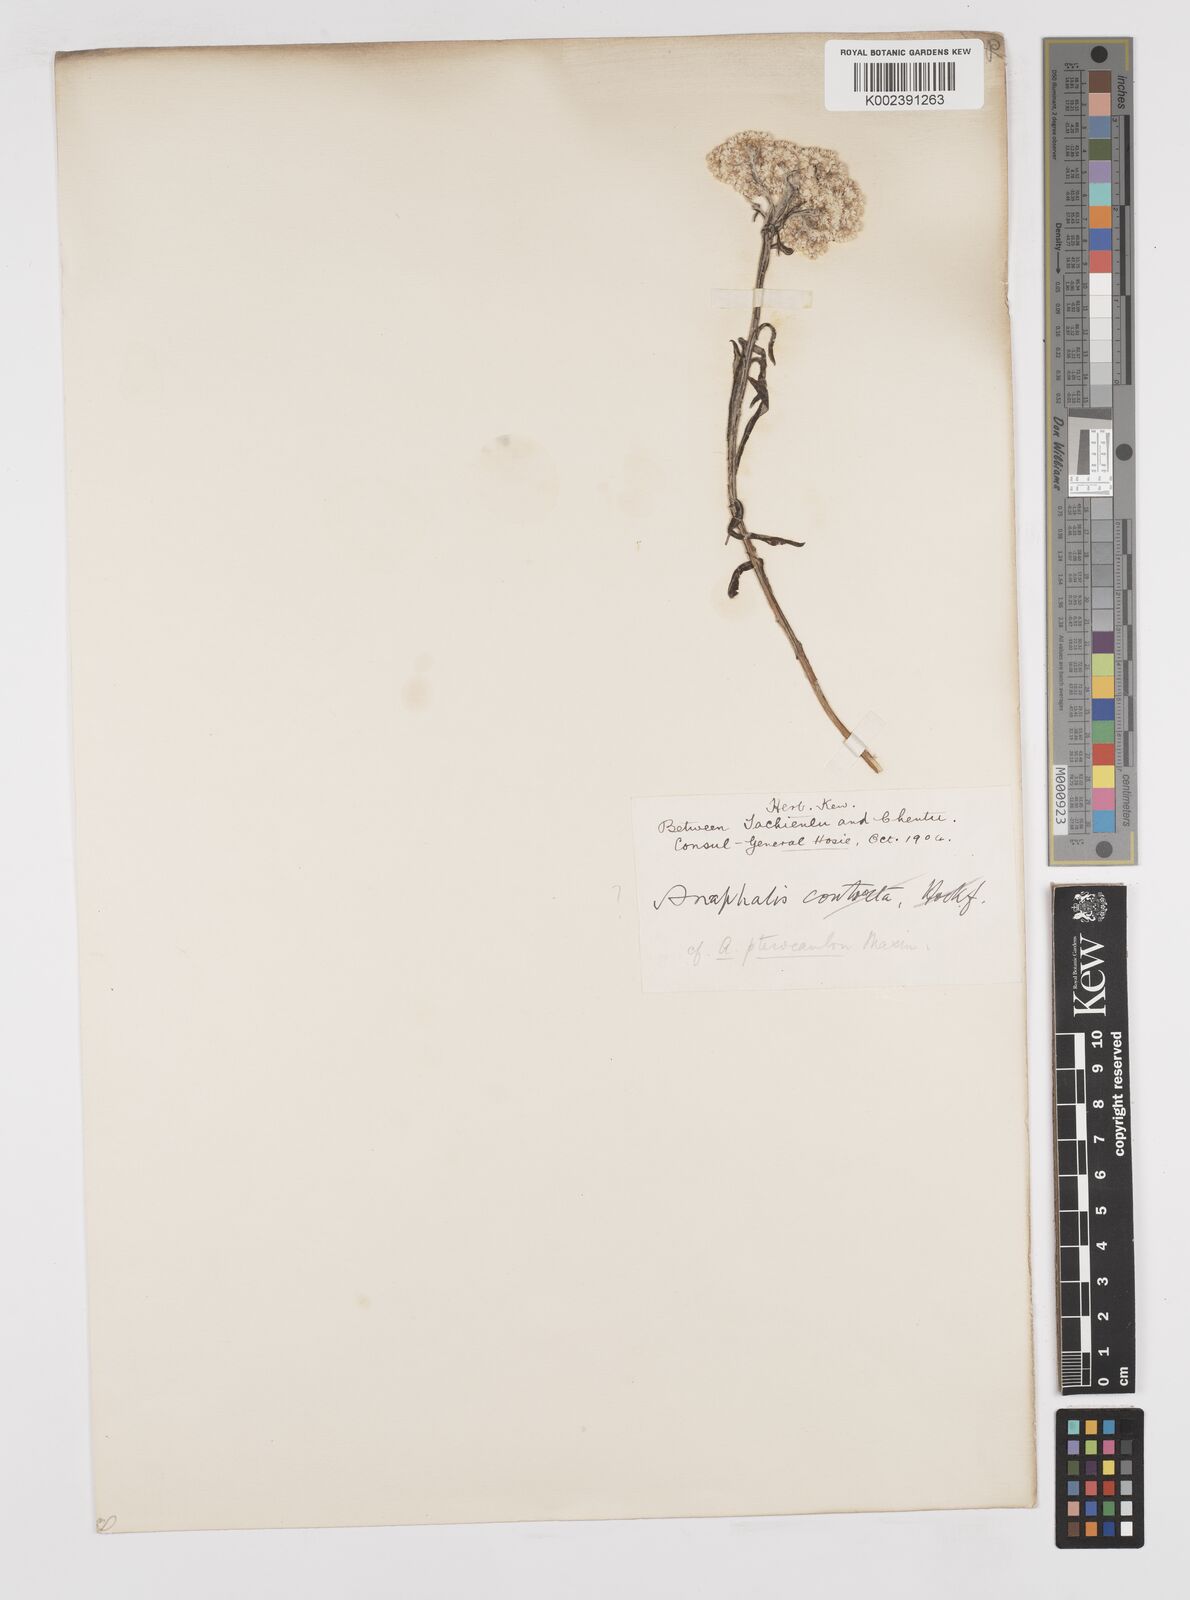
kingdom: Plantae
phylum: Tracheophyta
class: Magnoliopsida
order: Asterales
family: Asteraceae
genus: Anaphalis
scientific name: Anaphalis sinica
